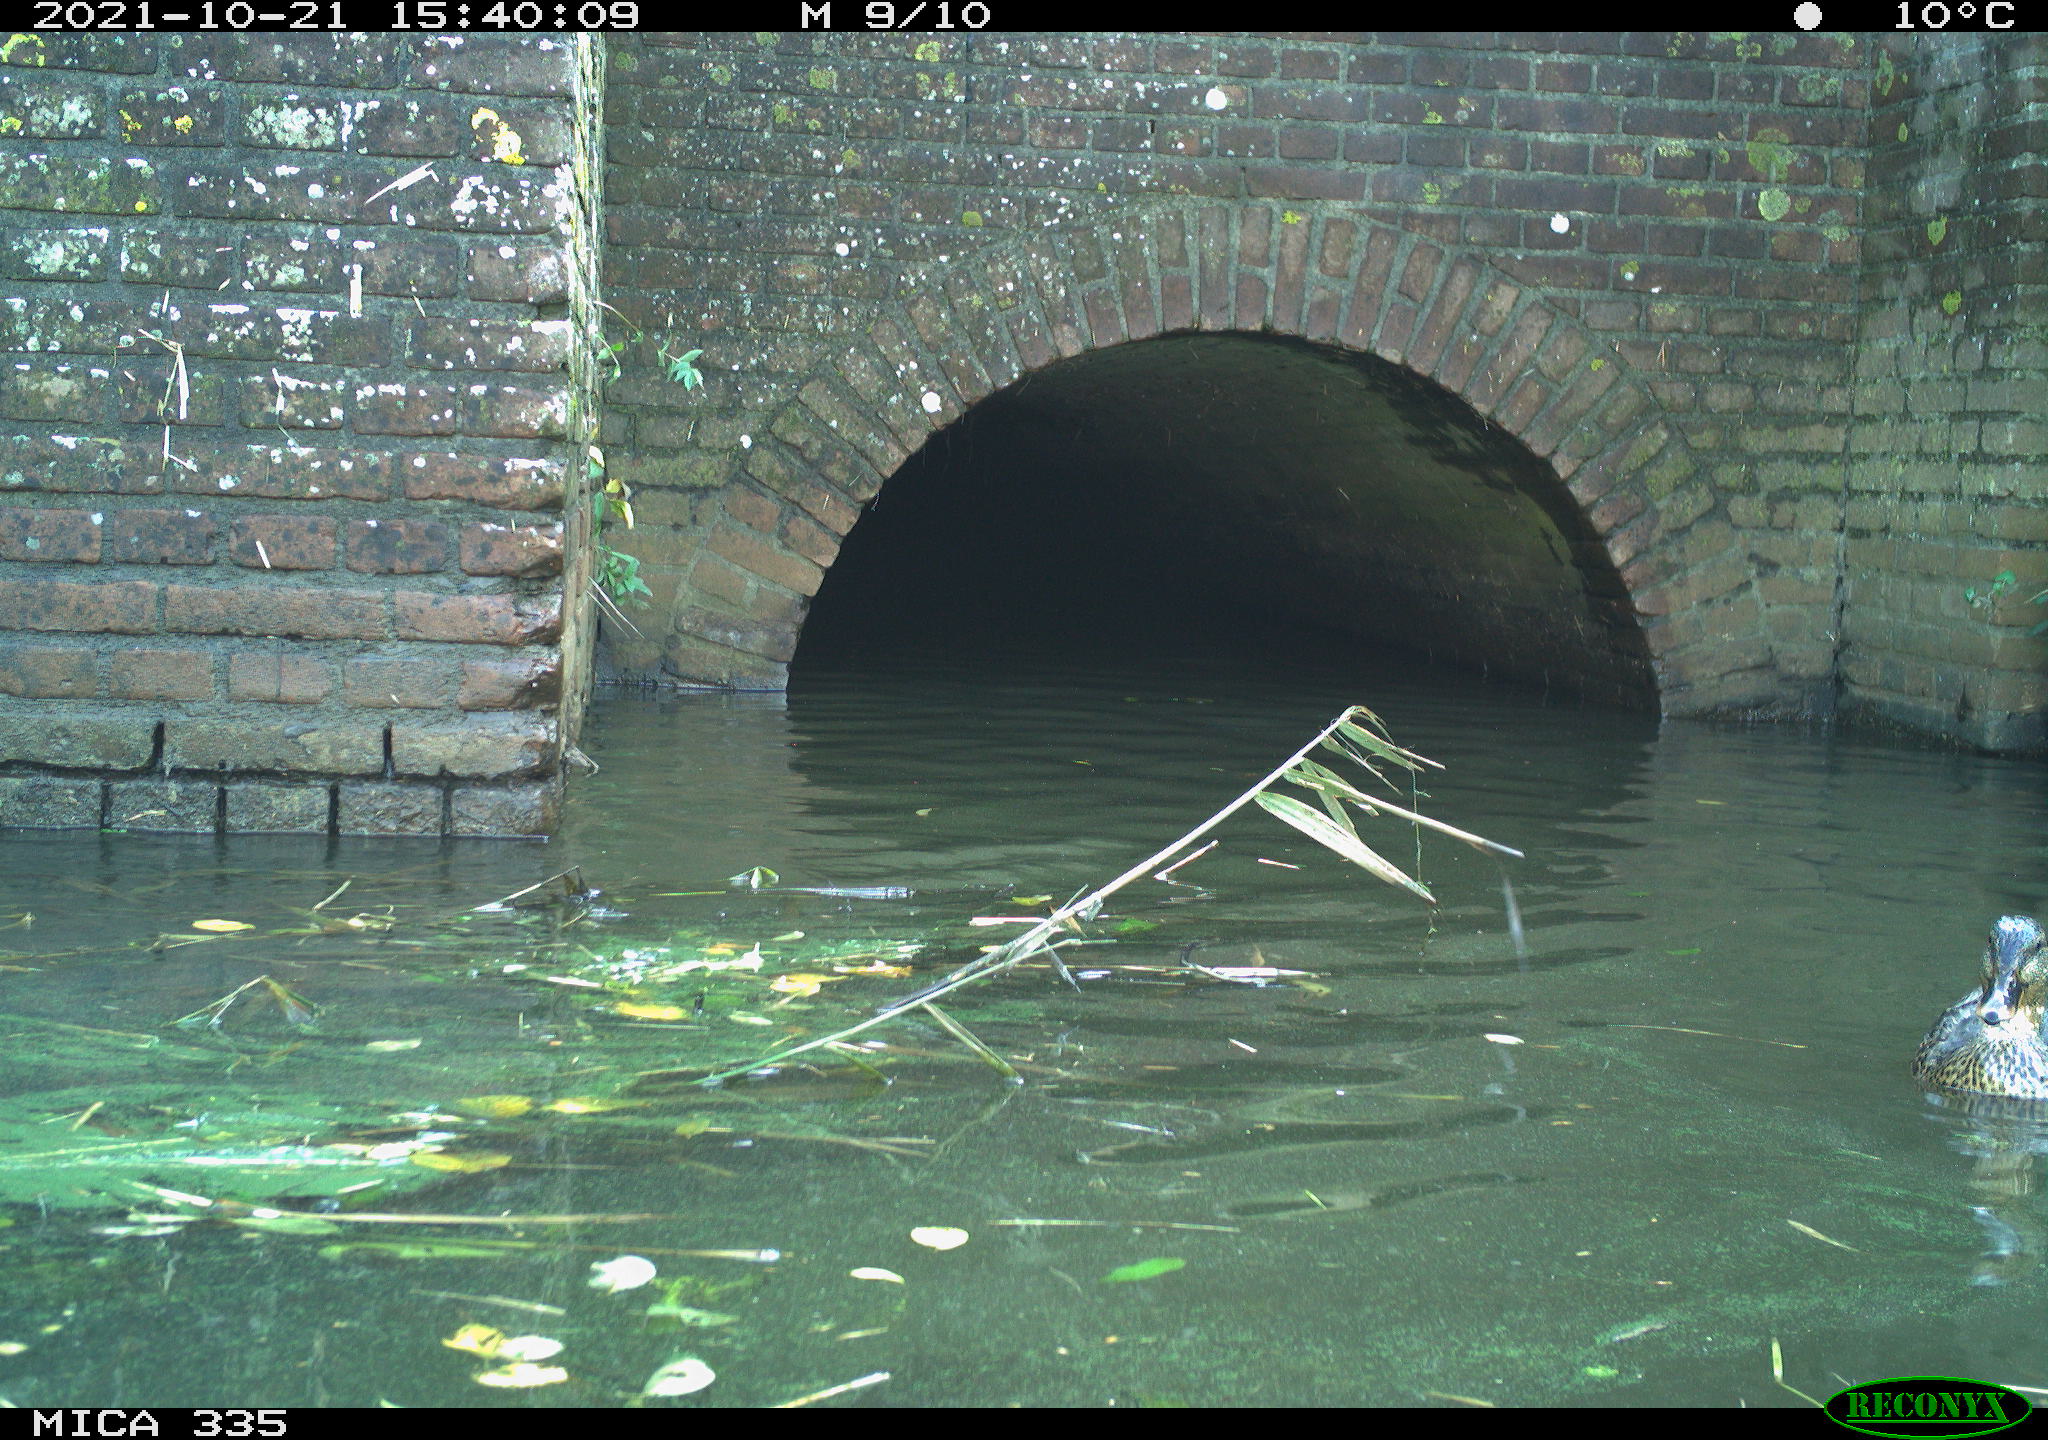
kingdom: Animalia
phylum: Chordata
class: Aves
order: Anseriformes
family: Anatidae
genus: Anas
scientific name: Anas platyrhynchos
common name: Mallard
